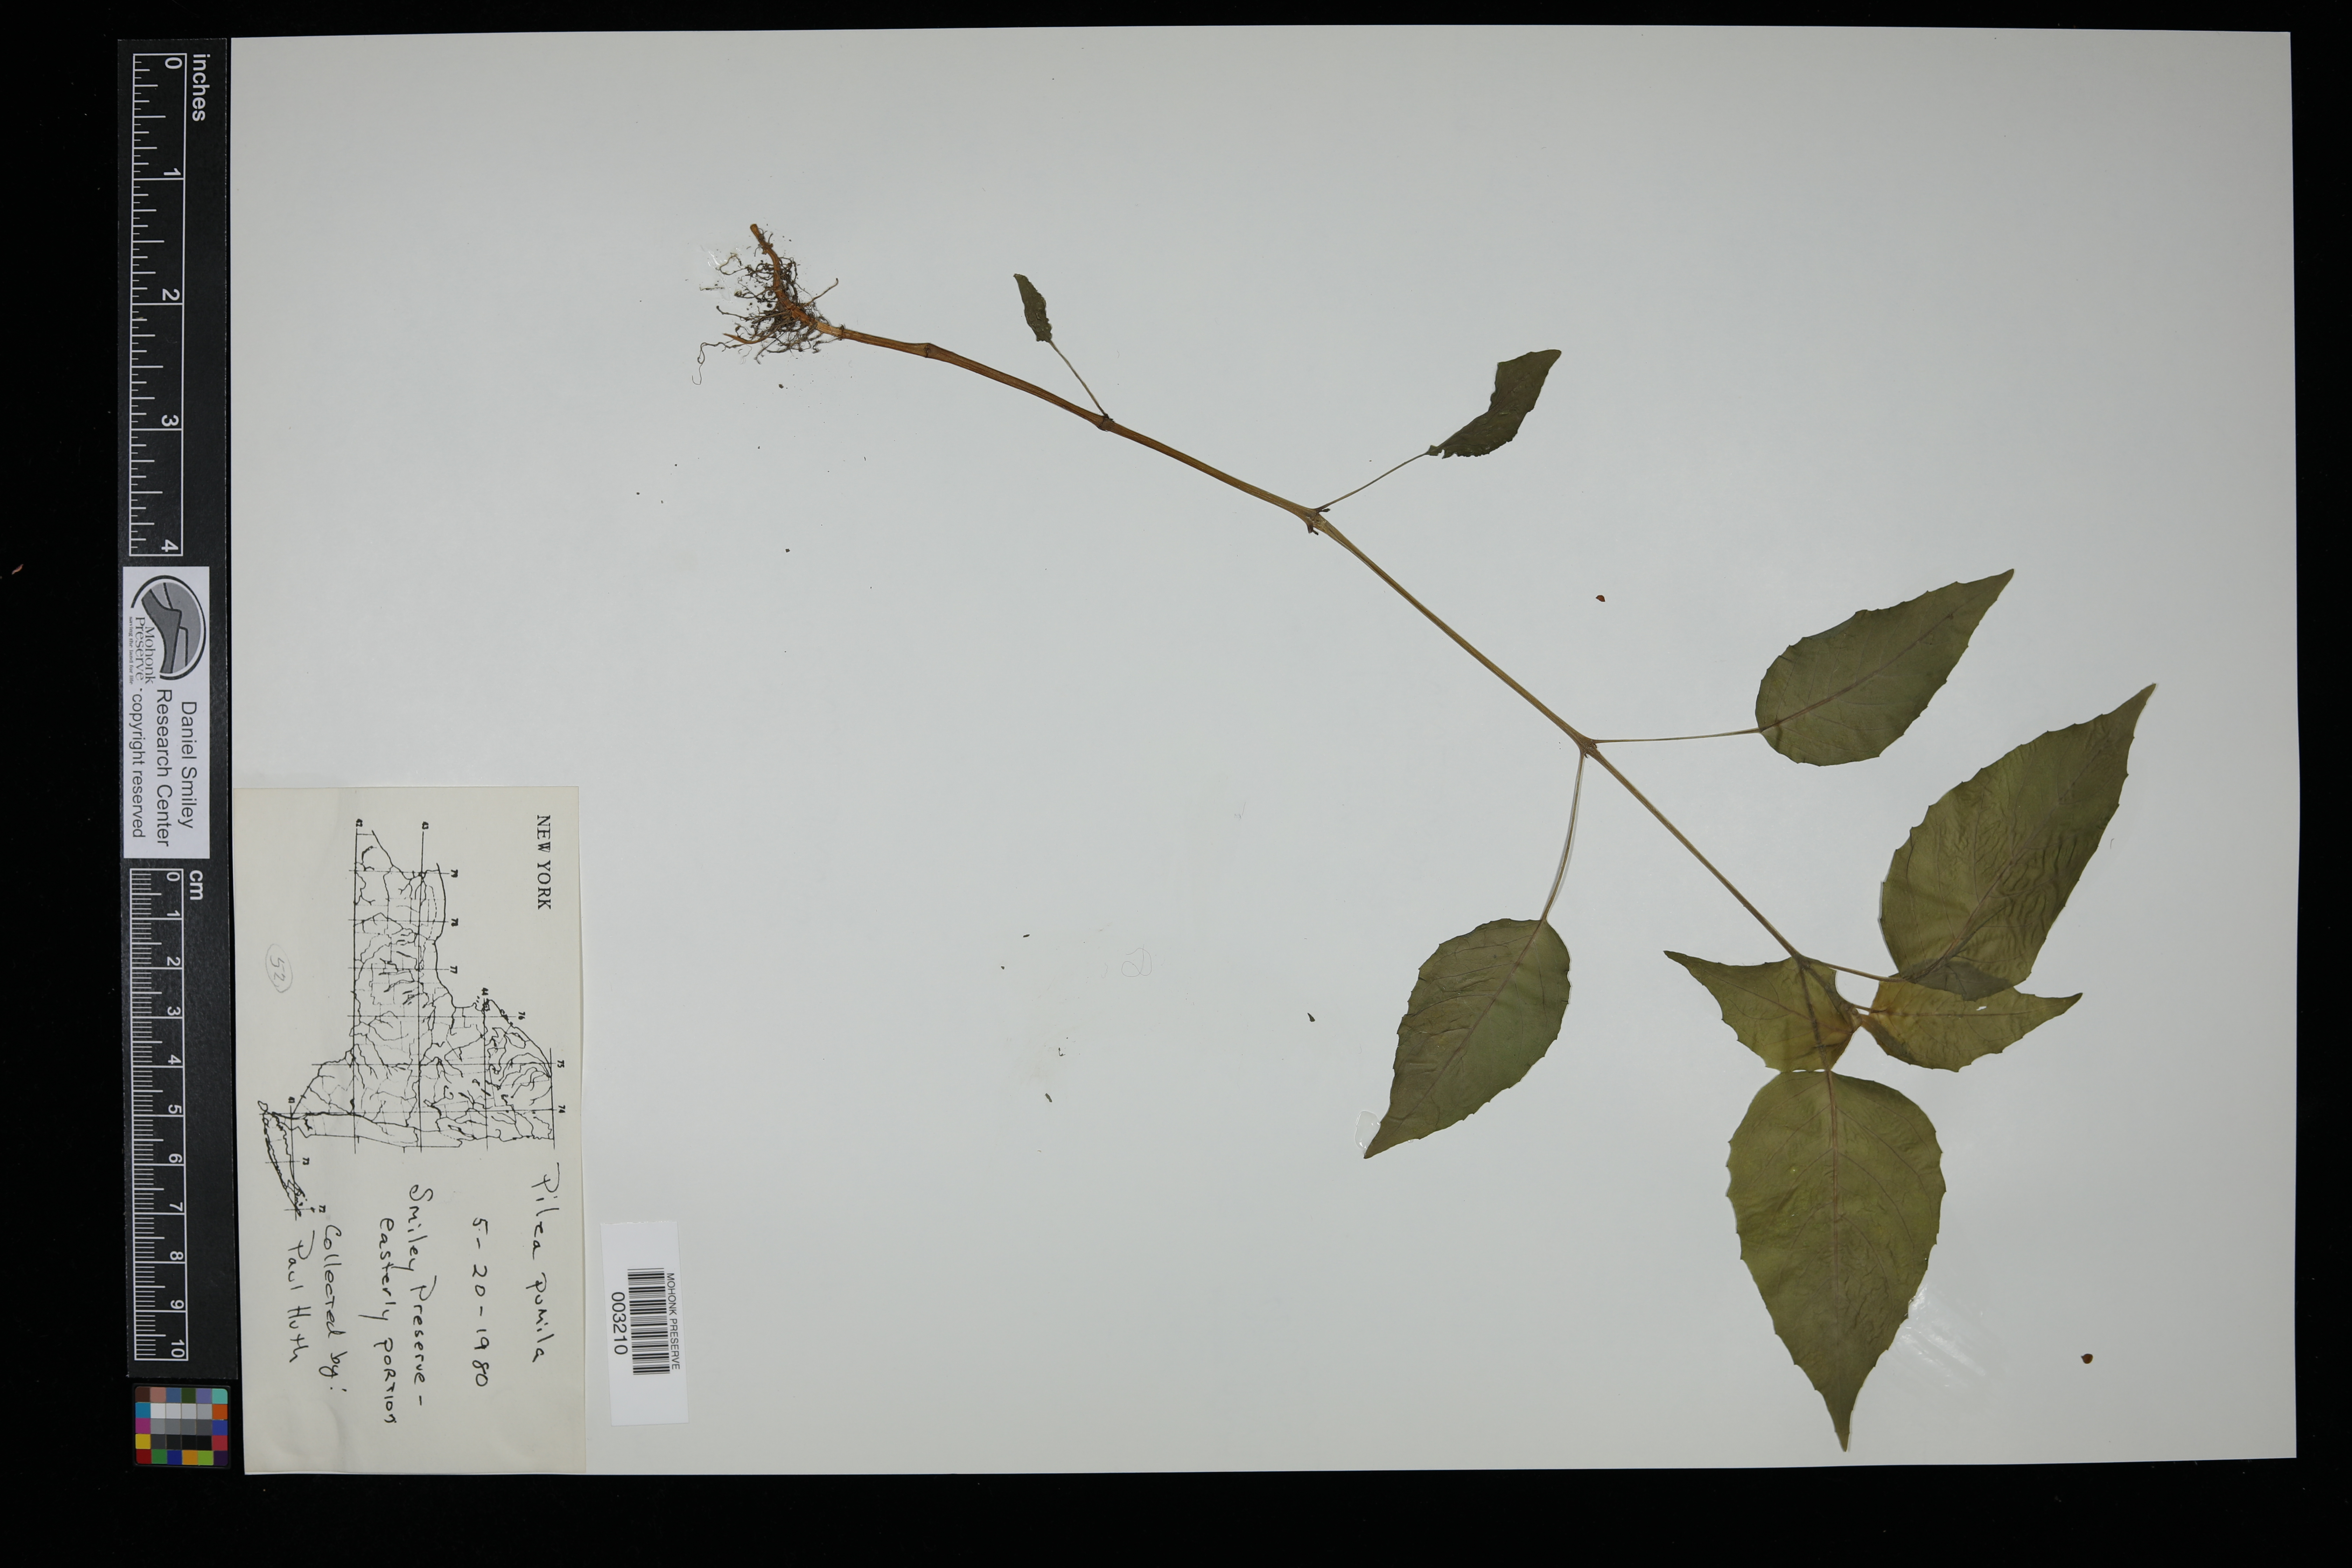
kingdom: Plantae
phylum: Tracheophyta
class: Magnoliopsida
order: Rosales
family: Urticaceae
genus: Pilea
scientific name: Pilea pumila
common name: Clearweed
